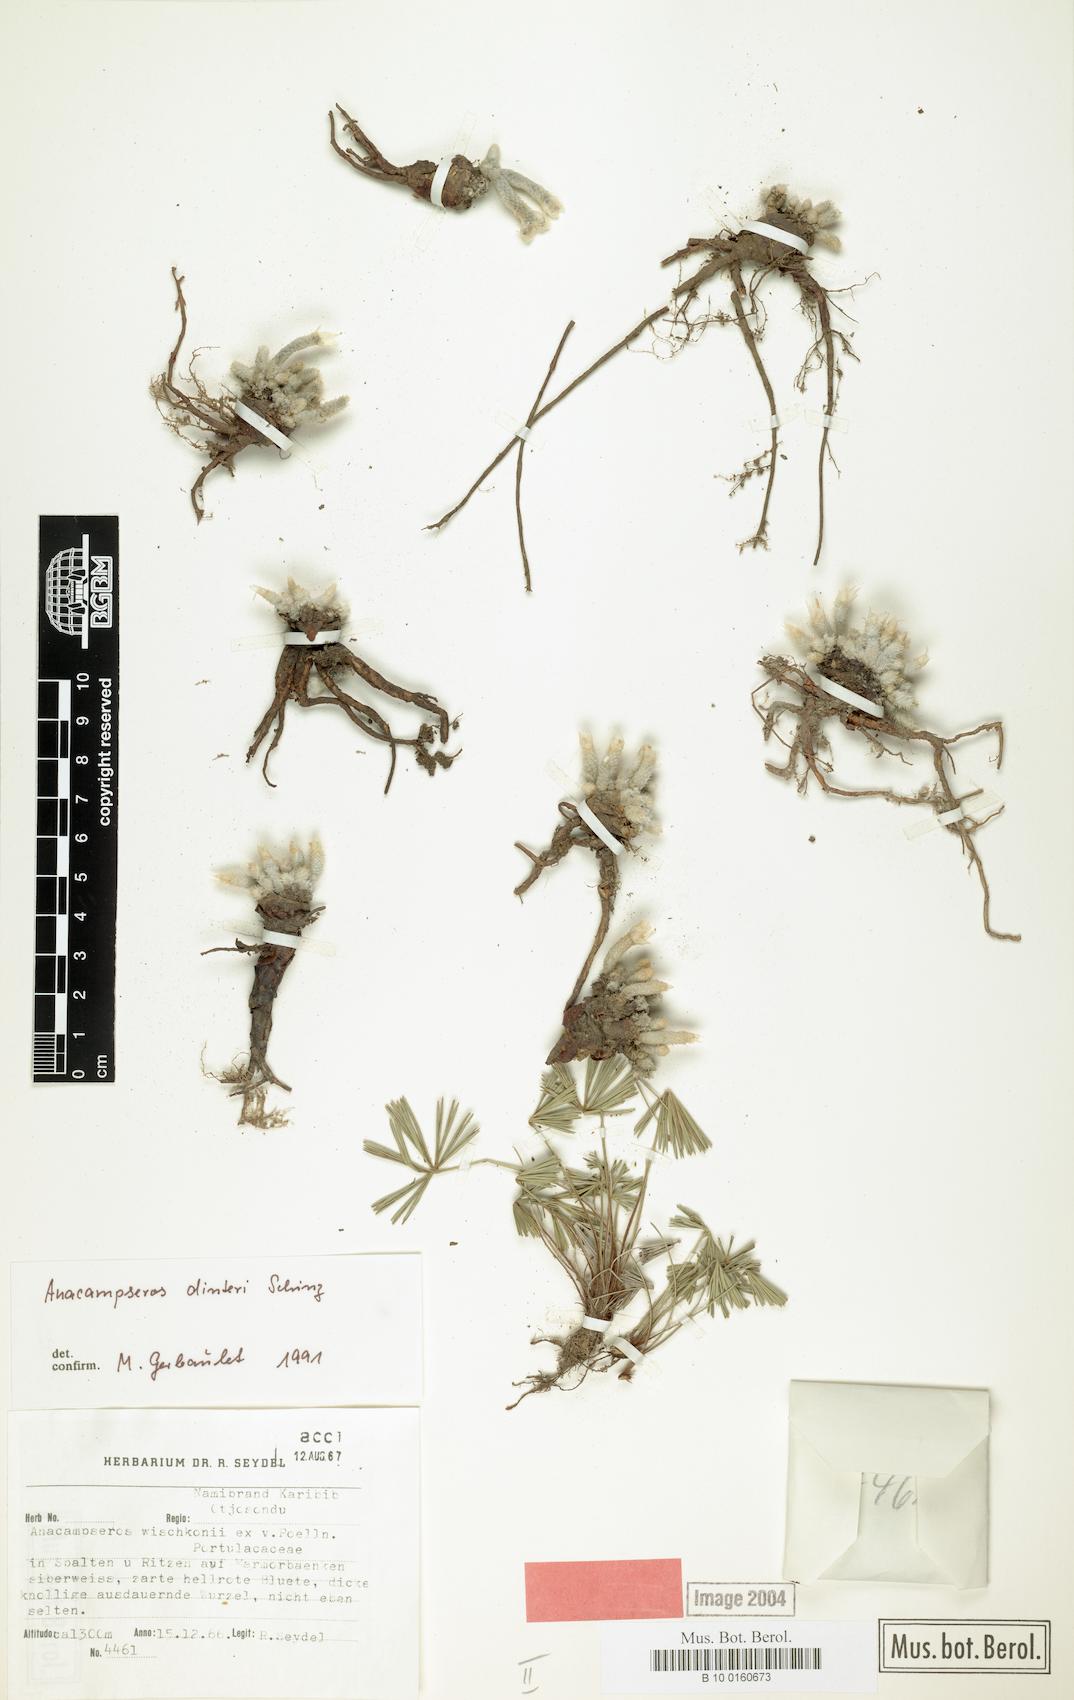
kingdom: Plantae
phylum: Tracheophyta
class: Magnoliopsida
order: Caryophyllales
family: Anacampserotaceae
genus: Avonia
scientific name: Avonia dinteri
